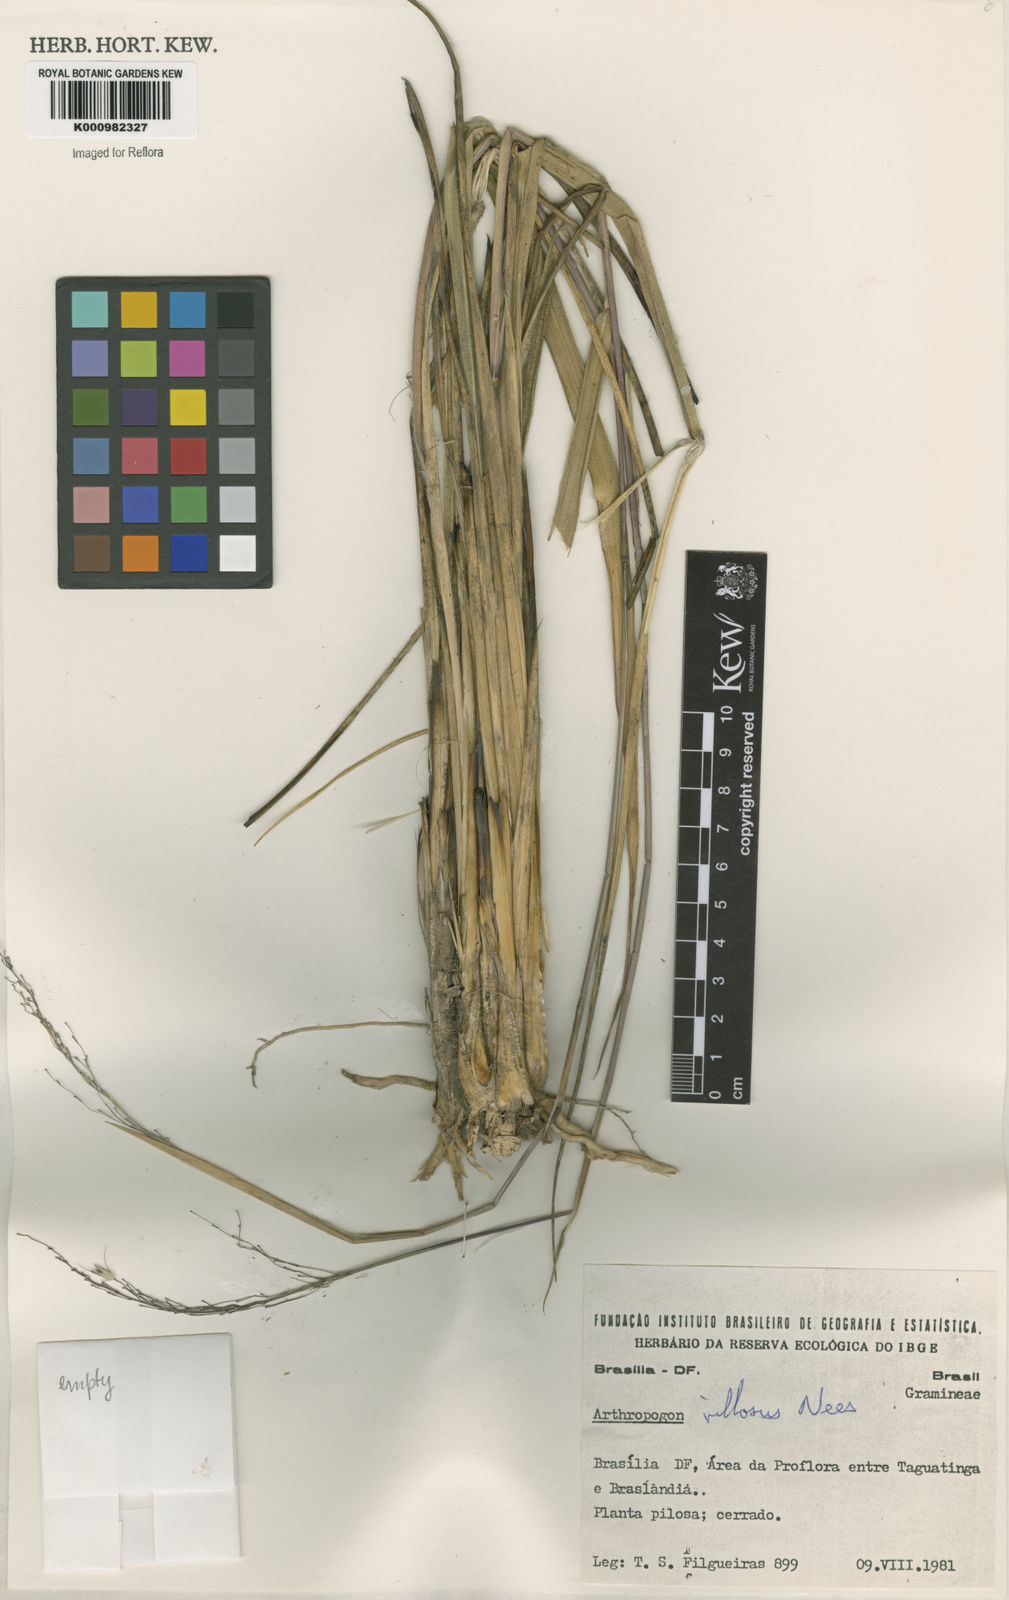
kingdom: Plantae
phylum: Tracheophyta
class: Liliopsida
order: Poales
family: Poaceae
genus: Arthropogon
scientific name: Arthropogon villosus
